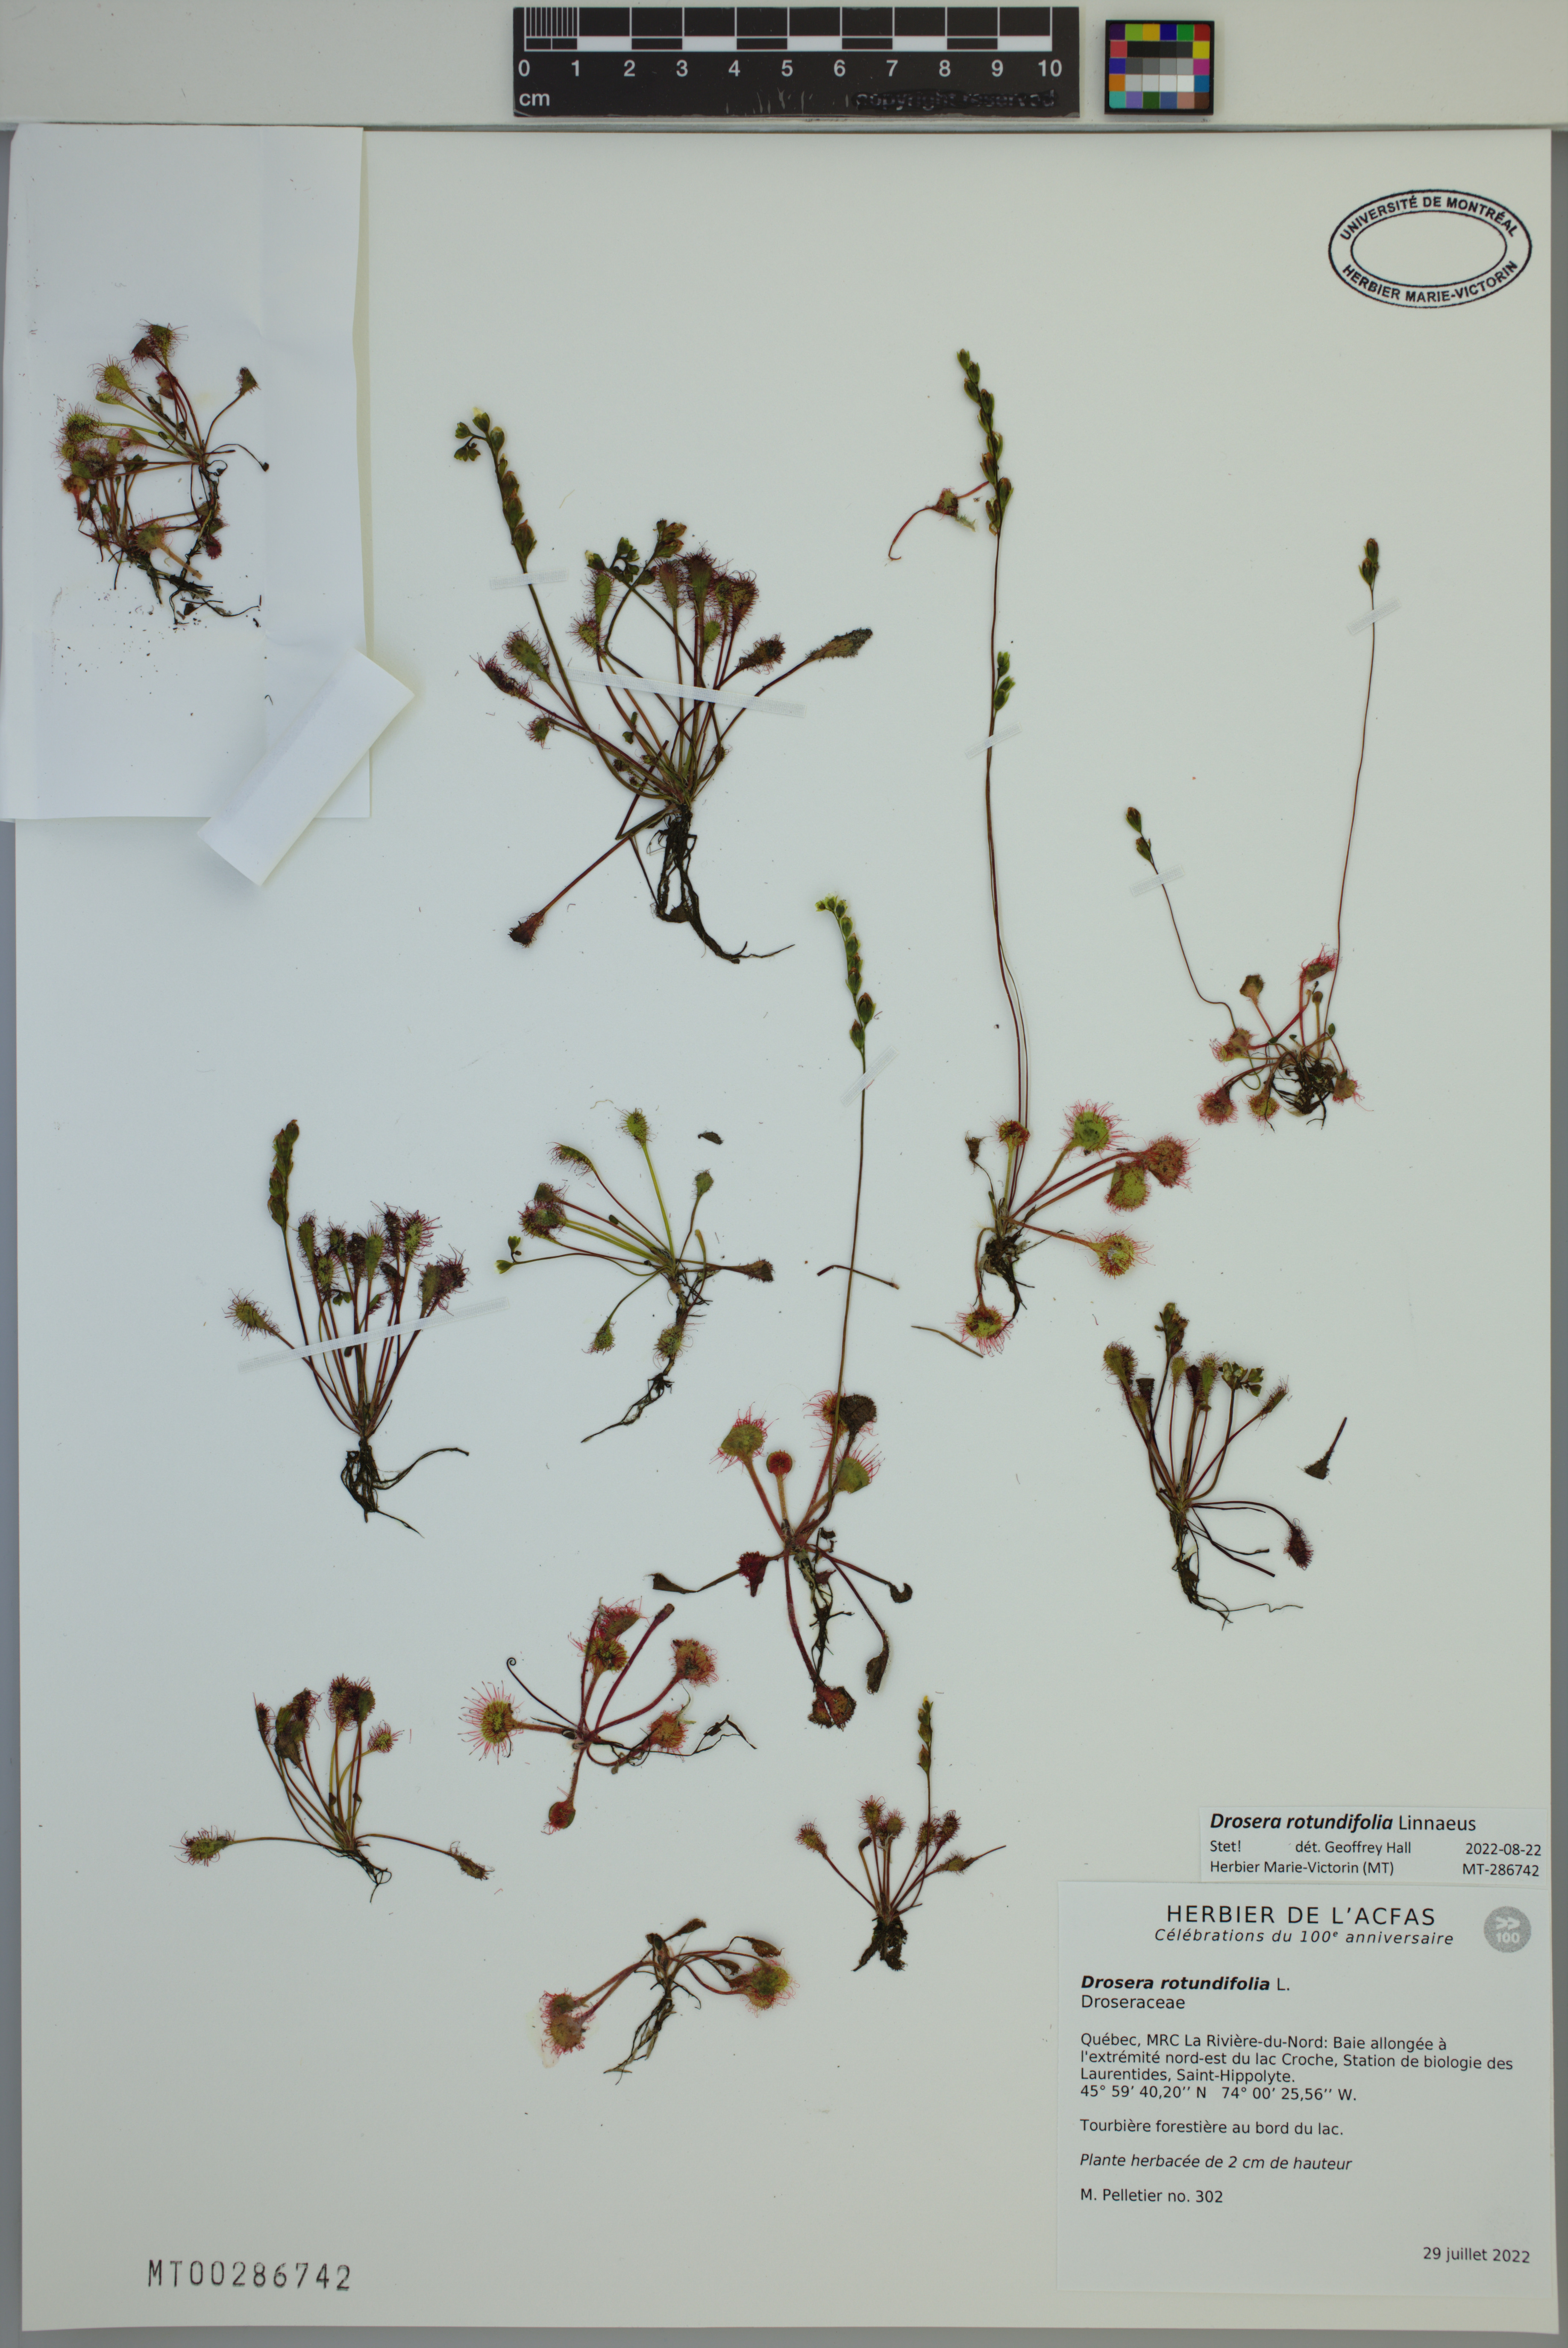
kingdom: Plantae
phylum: Tracheophyta
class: Magnoliopsida
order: Caryophyllales
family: Droseraceae
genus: Drosera
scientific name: Drosera rotundifolia
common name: Round-leaved sundew
